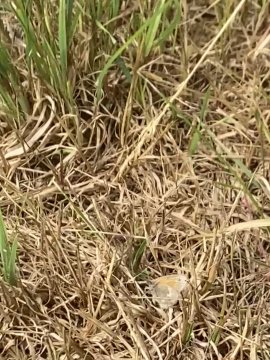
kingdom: Animalia
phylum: Arthropoda
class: Insecta
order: Lepidoptera
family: Nymphalidae
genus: Coenonympha
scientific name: Coenonympha tullia
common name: Large Heath
